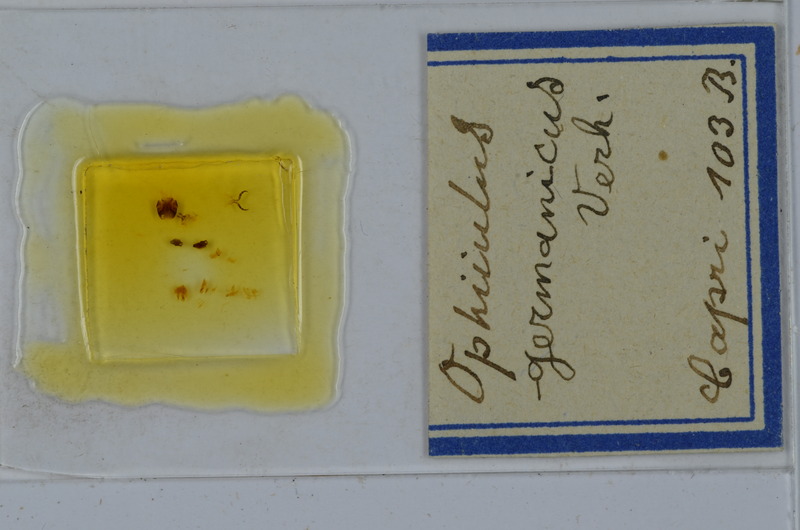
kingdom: Animalia
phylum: Arthropoda
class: Diplopoda
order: Julida
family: Julidae
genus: Ophyiulus
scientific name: Ophyiulus germanicus
